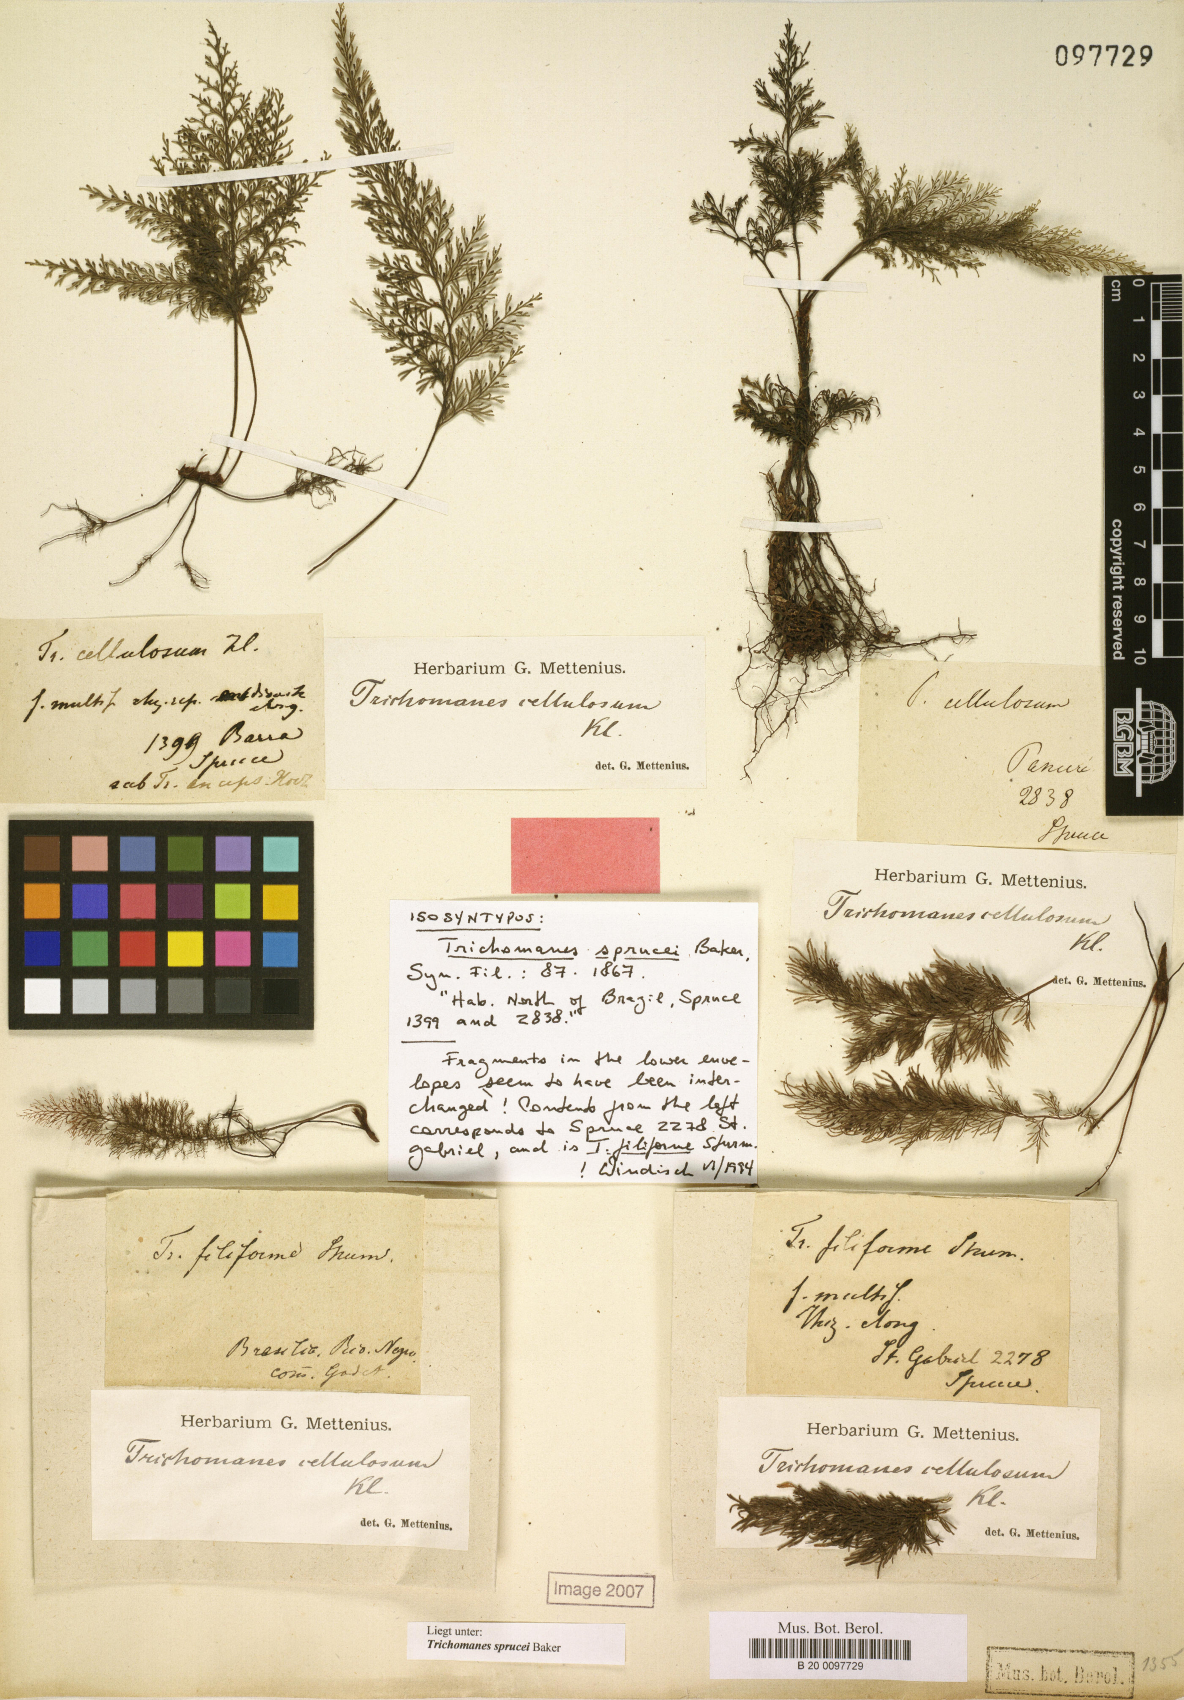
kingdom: Plantae
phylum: Tracheophyta
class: Polypodiopsida
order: Hymenophyllales
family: Hymenophyllaceae
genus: Abrodictyum
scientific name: Abrodictyum sprucei
